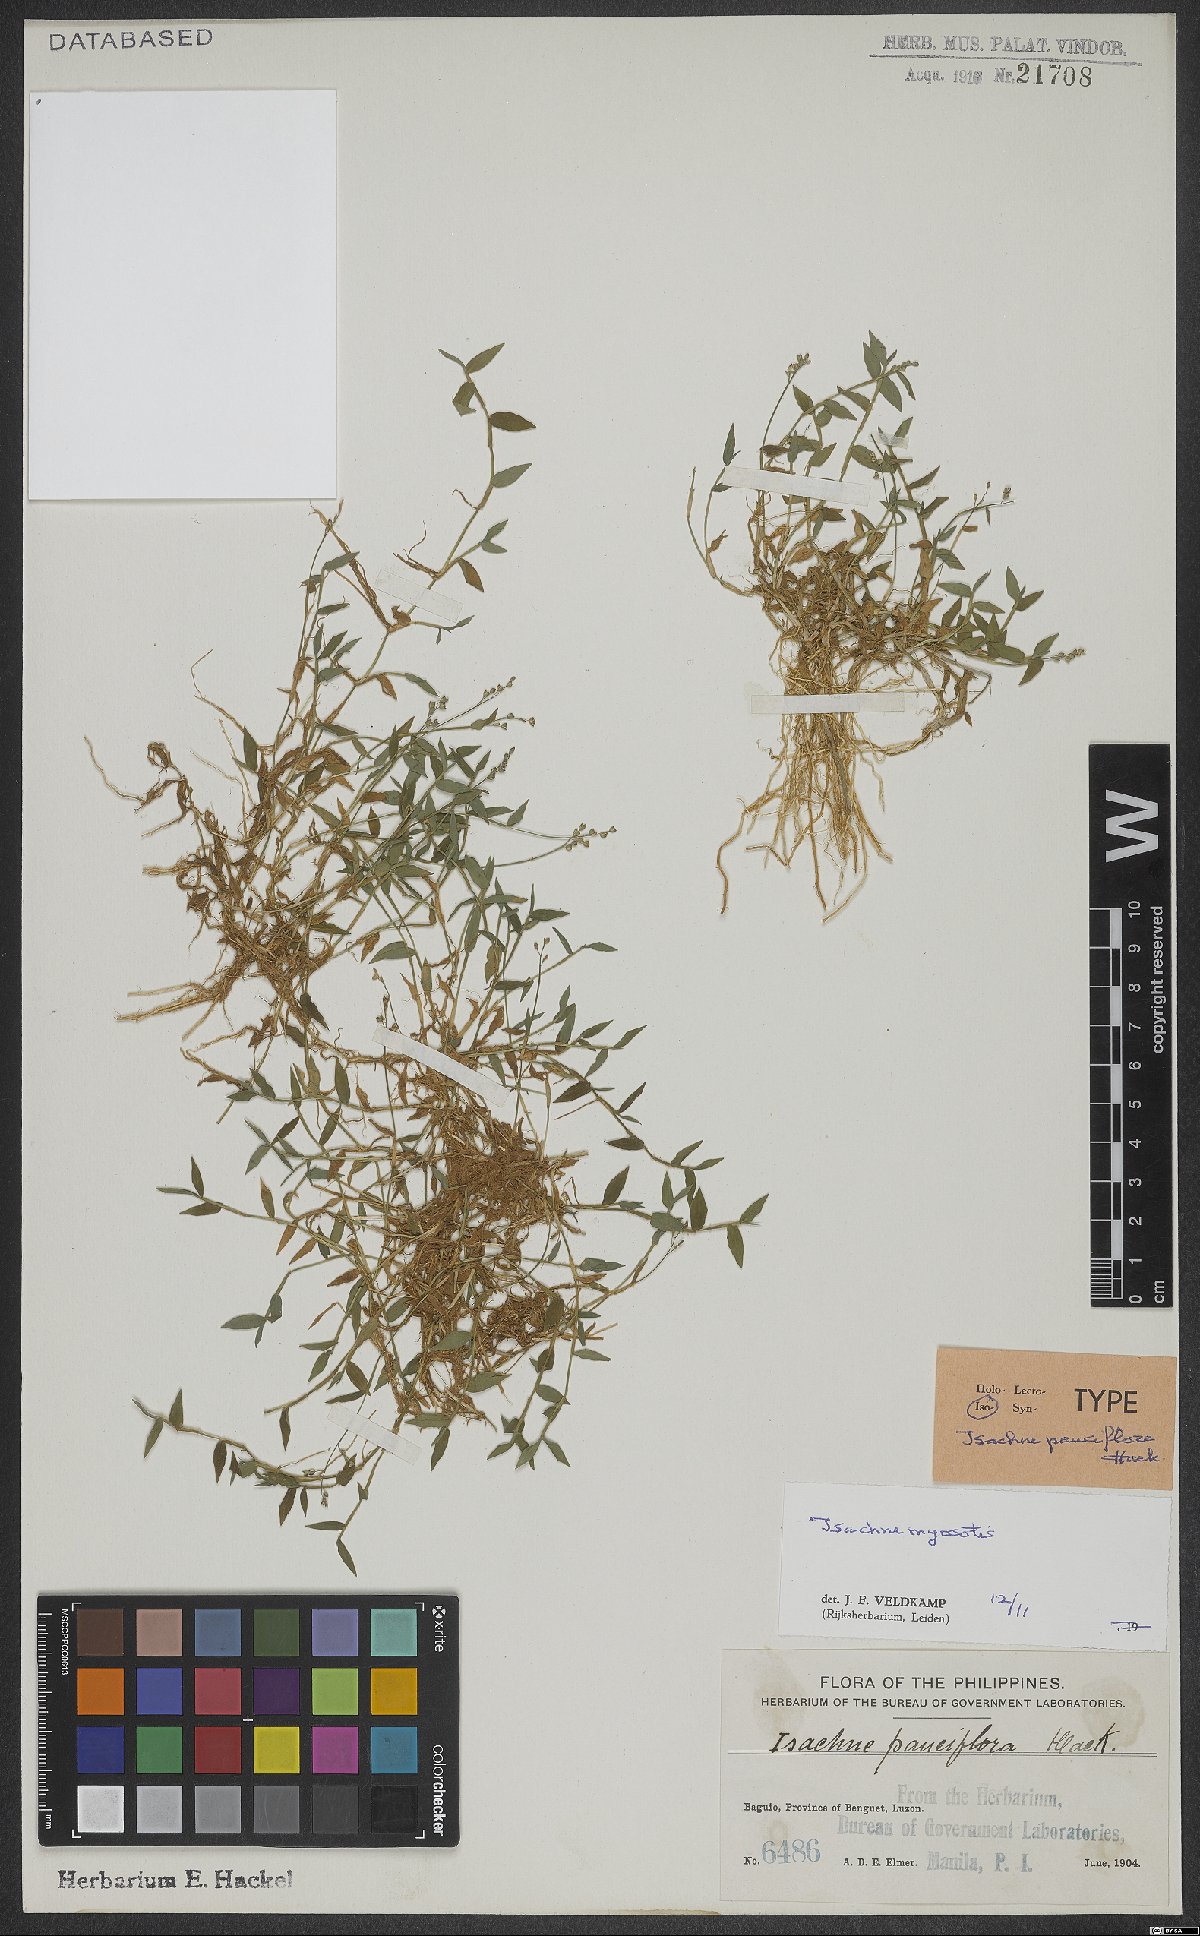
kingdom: Plantae
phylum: Tracheophyta
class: Liliopsida
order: Poales
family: Poaceae
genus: Isachne
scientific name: Isachne myosotis
